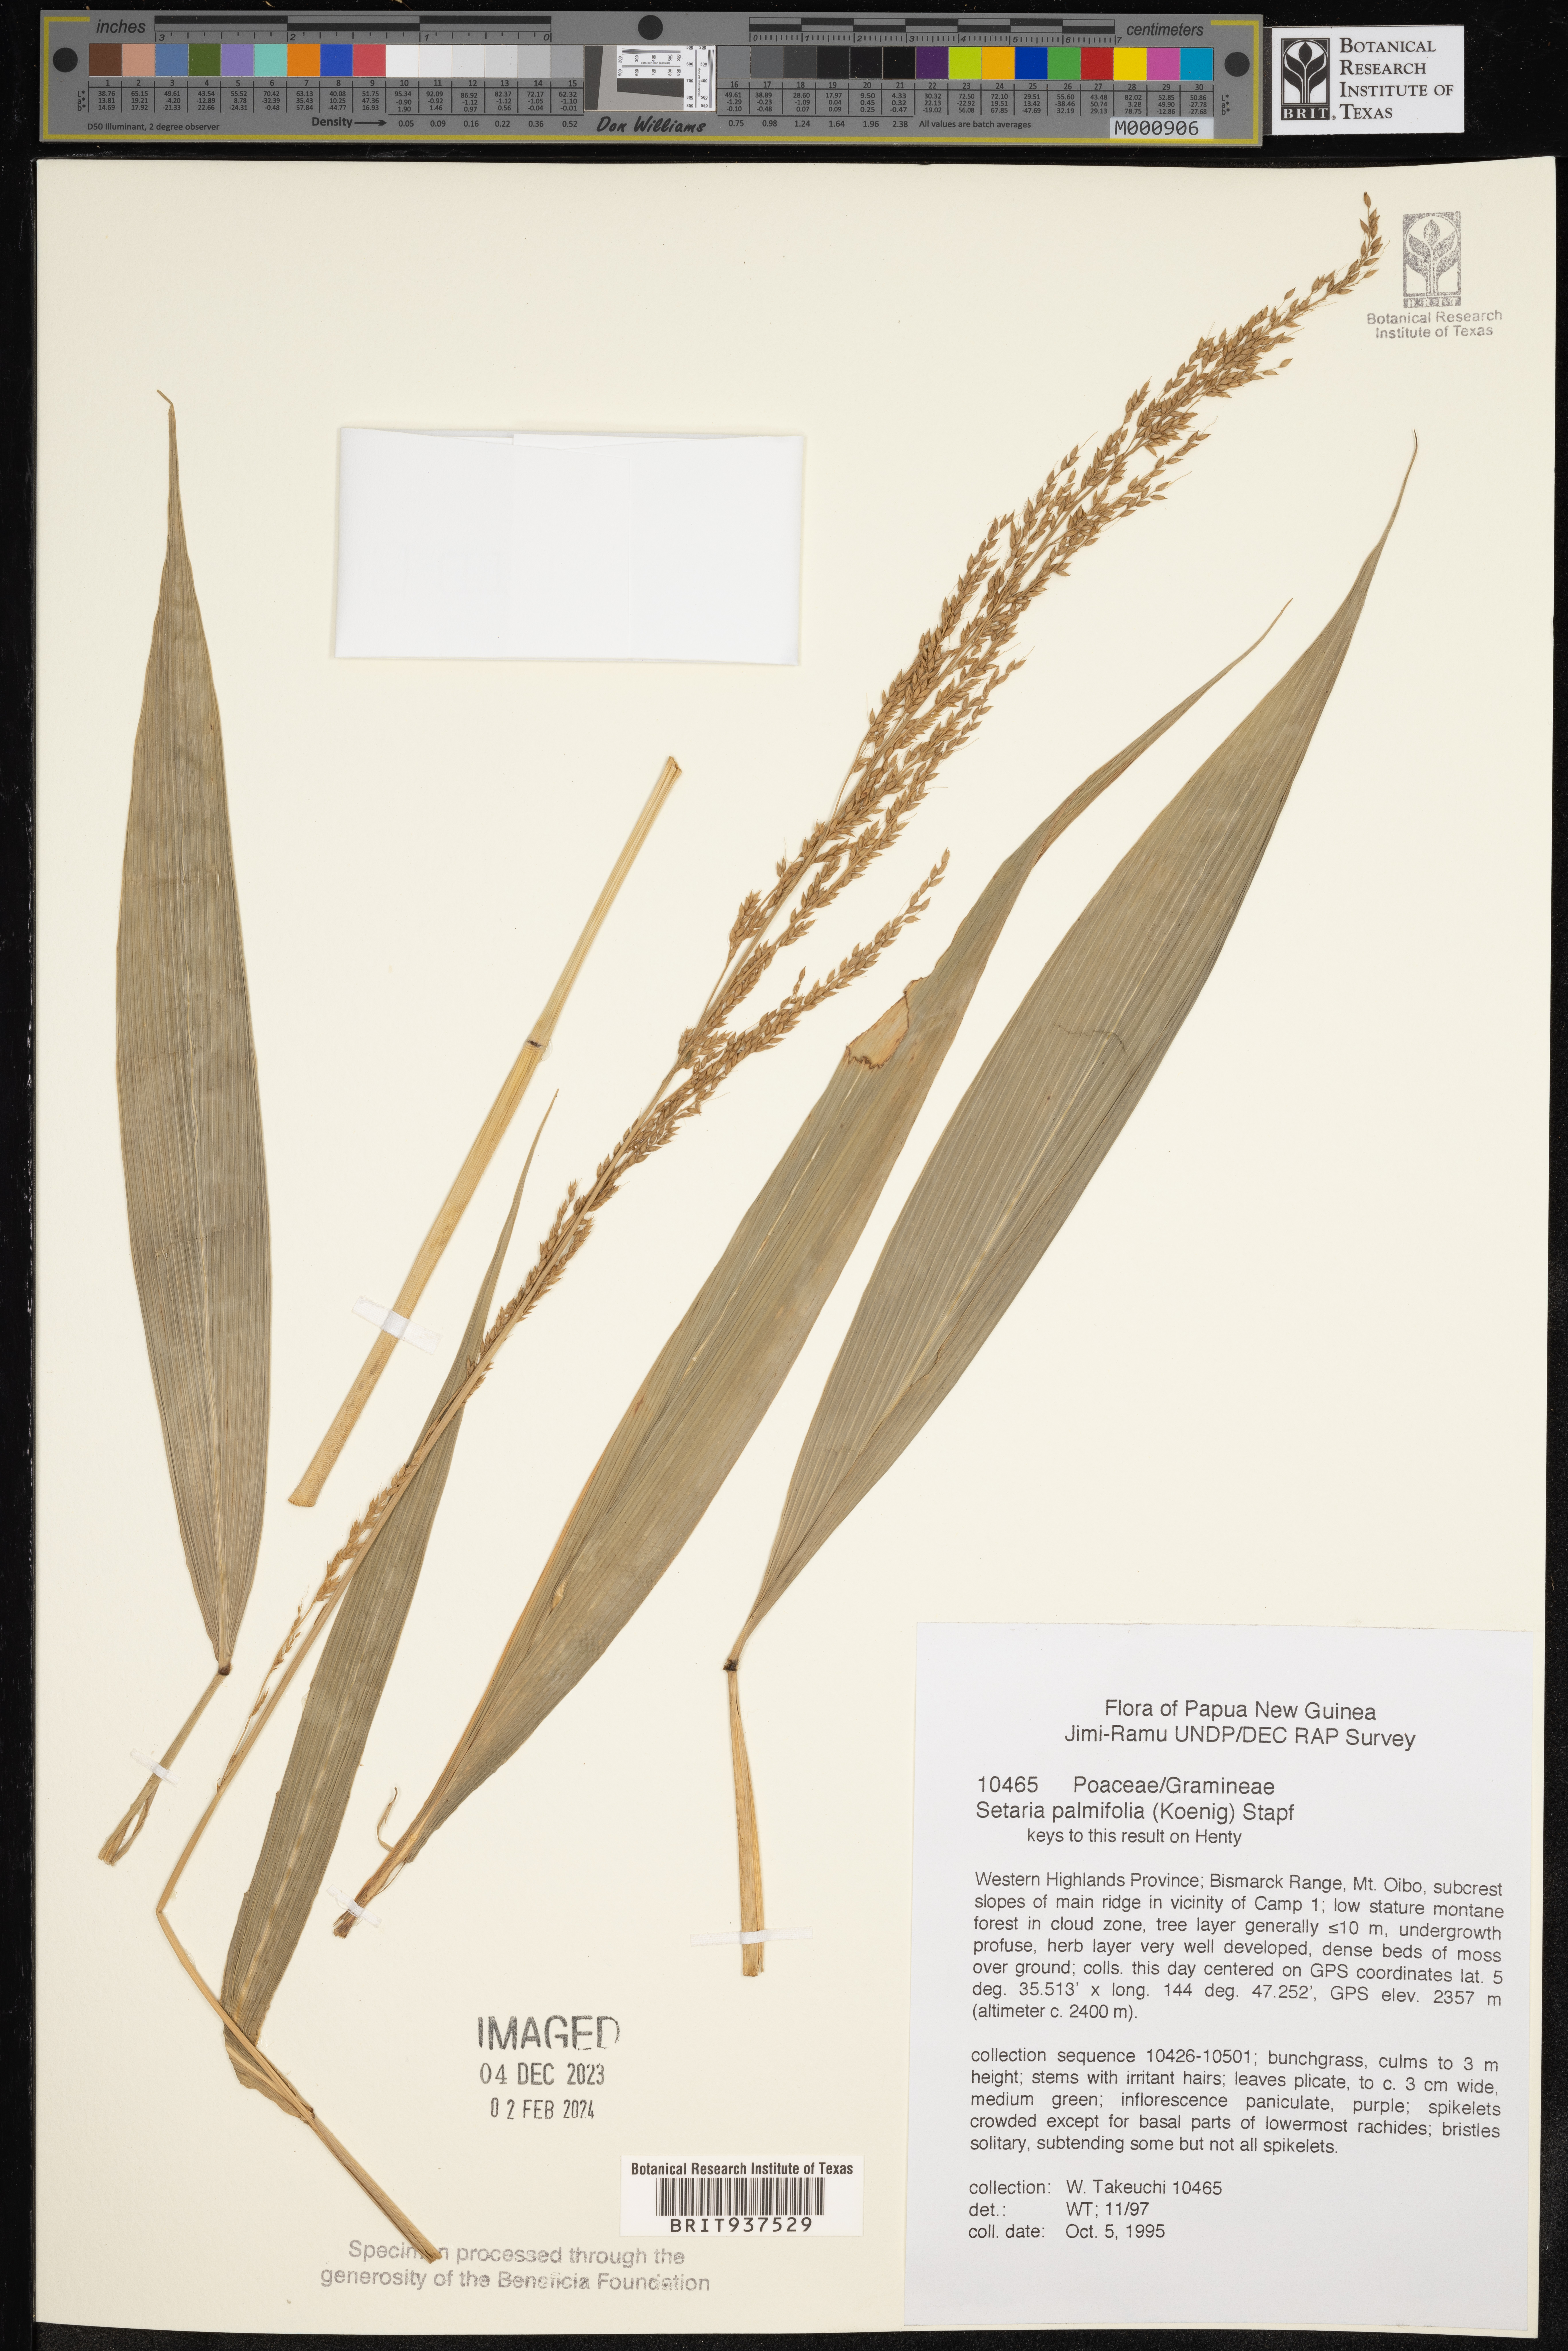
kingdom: Plantae
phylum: Tracheophyta
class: Liliopsida
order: Poales
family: Poaceae
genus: Setaria
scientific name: Setaria
